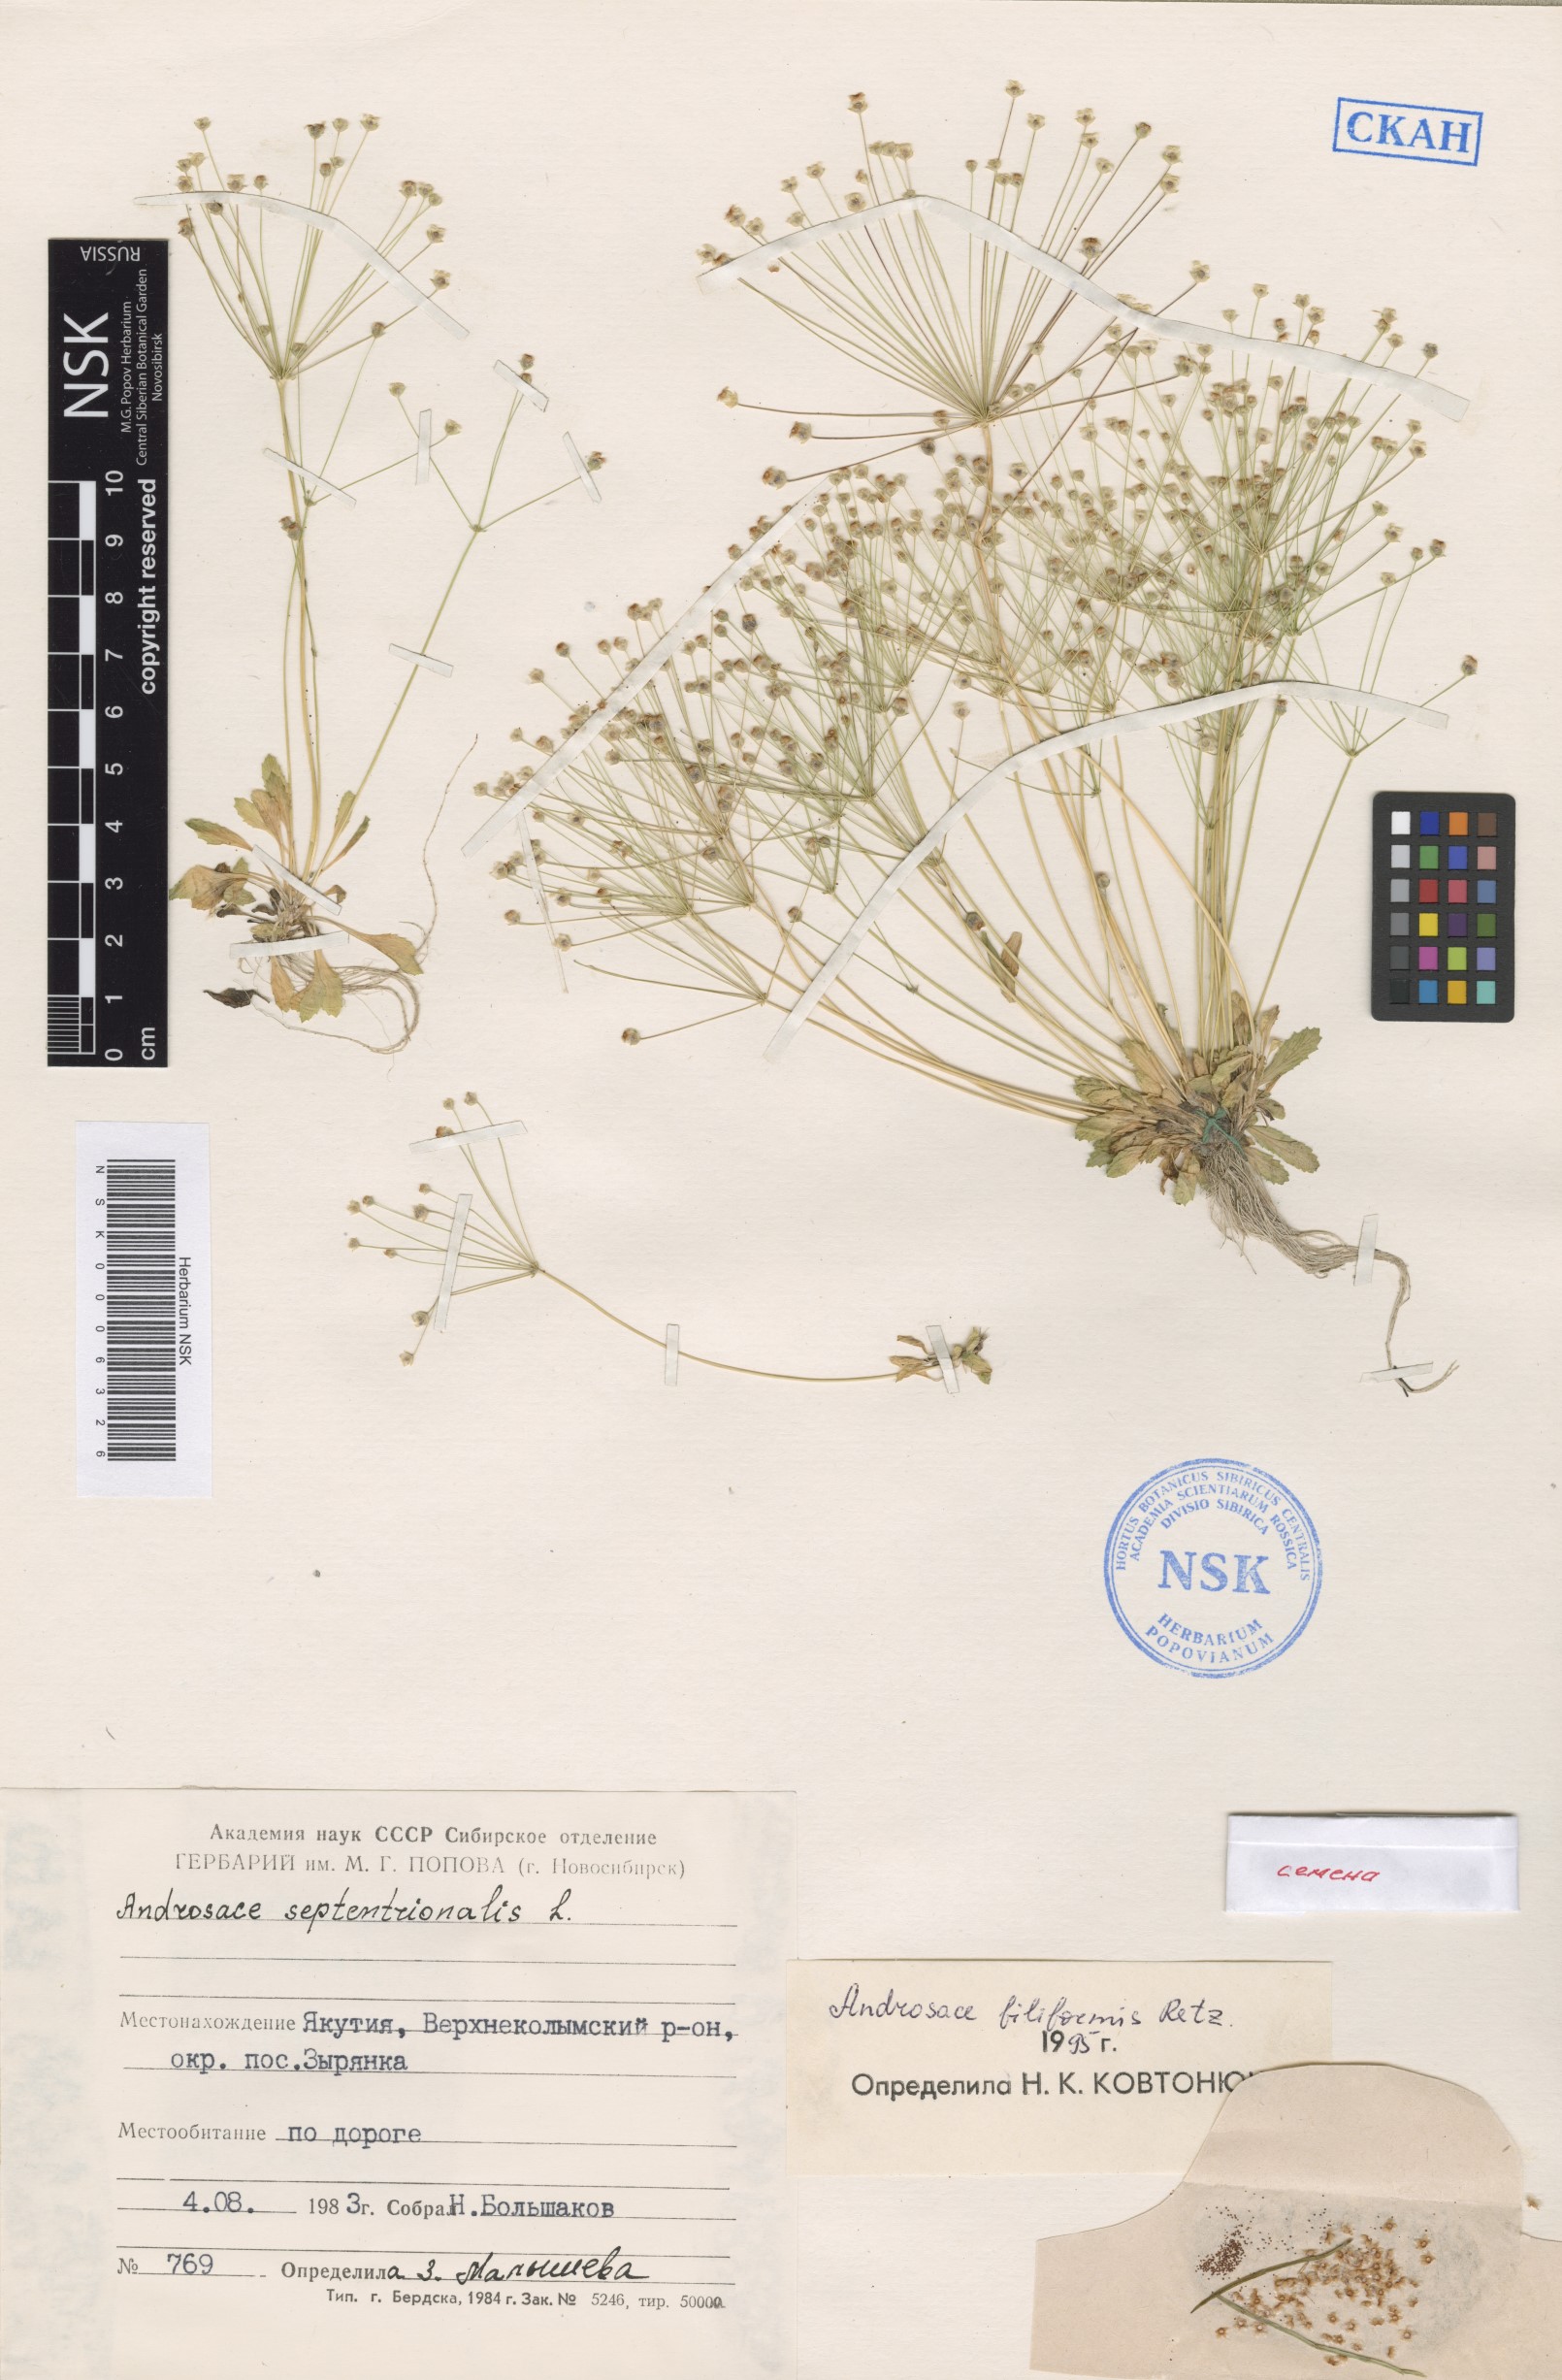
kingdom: Plantae
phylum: Tracheophyta
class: Magnoliopsida
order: Ericales
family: Primulaceae
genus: Androsace
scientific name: Androsace filiformis
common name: Filiform rock jasmine
